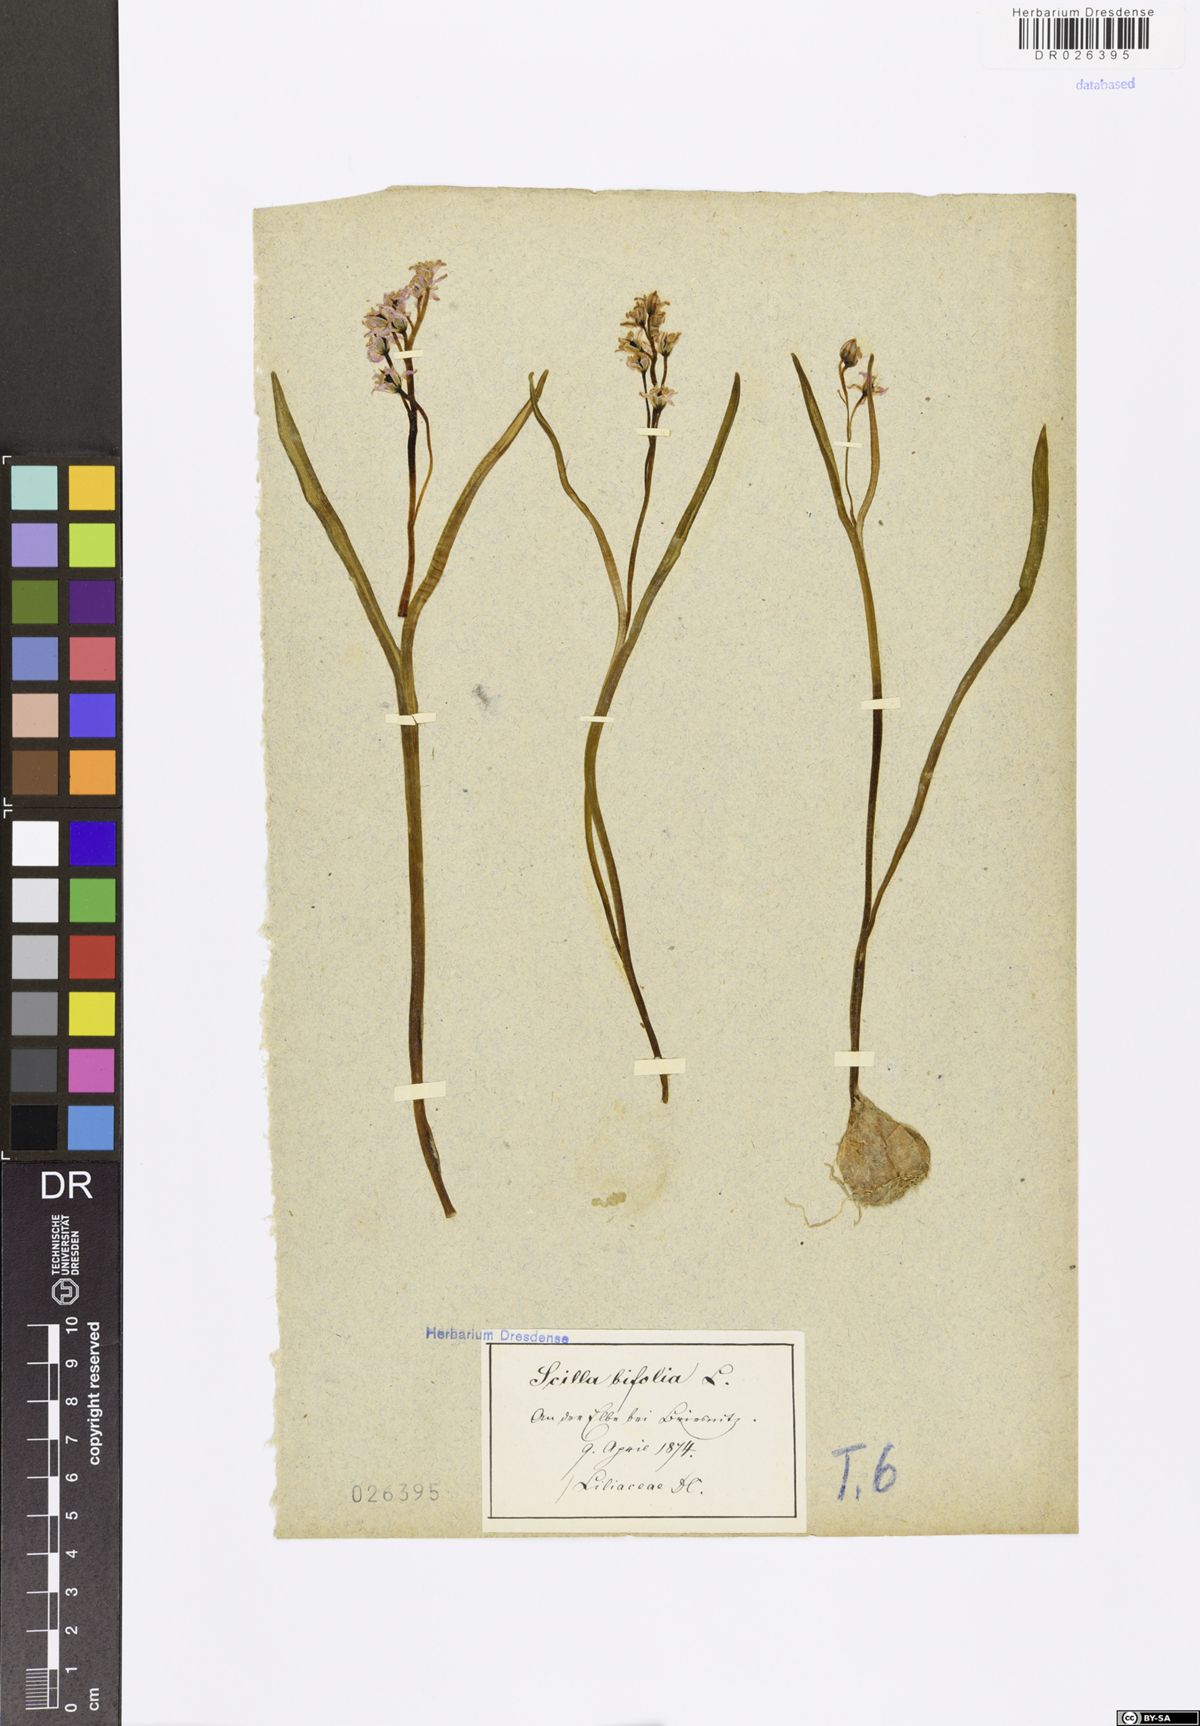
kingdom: Plantae
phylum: Tracheophyta
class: Liliopsida
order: Asparagales
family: Asparagaceae
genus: Scilla
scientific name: Scilla vindobonensis
